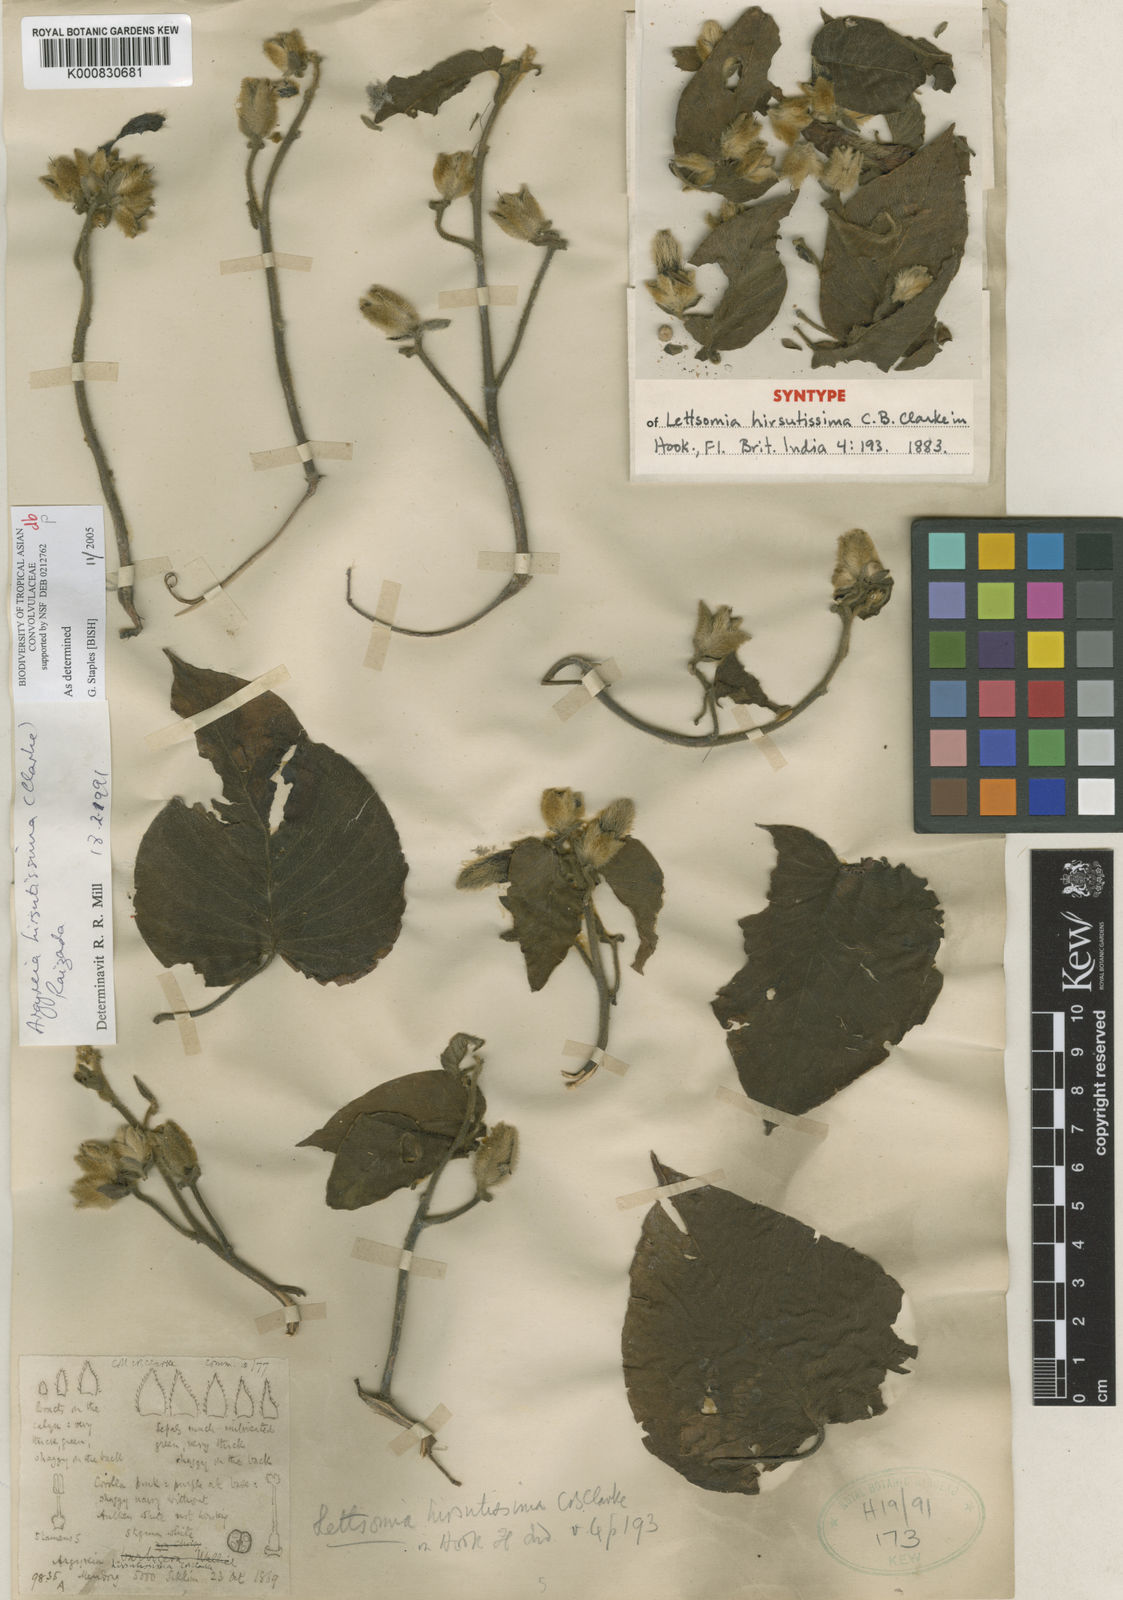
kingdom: Plantae
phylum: Tracheophyta
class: Magnoliopsida
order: Solanales
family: Convolvulaceae
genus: Argyreia
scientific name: Argyreia hirsutissima
